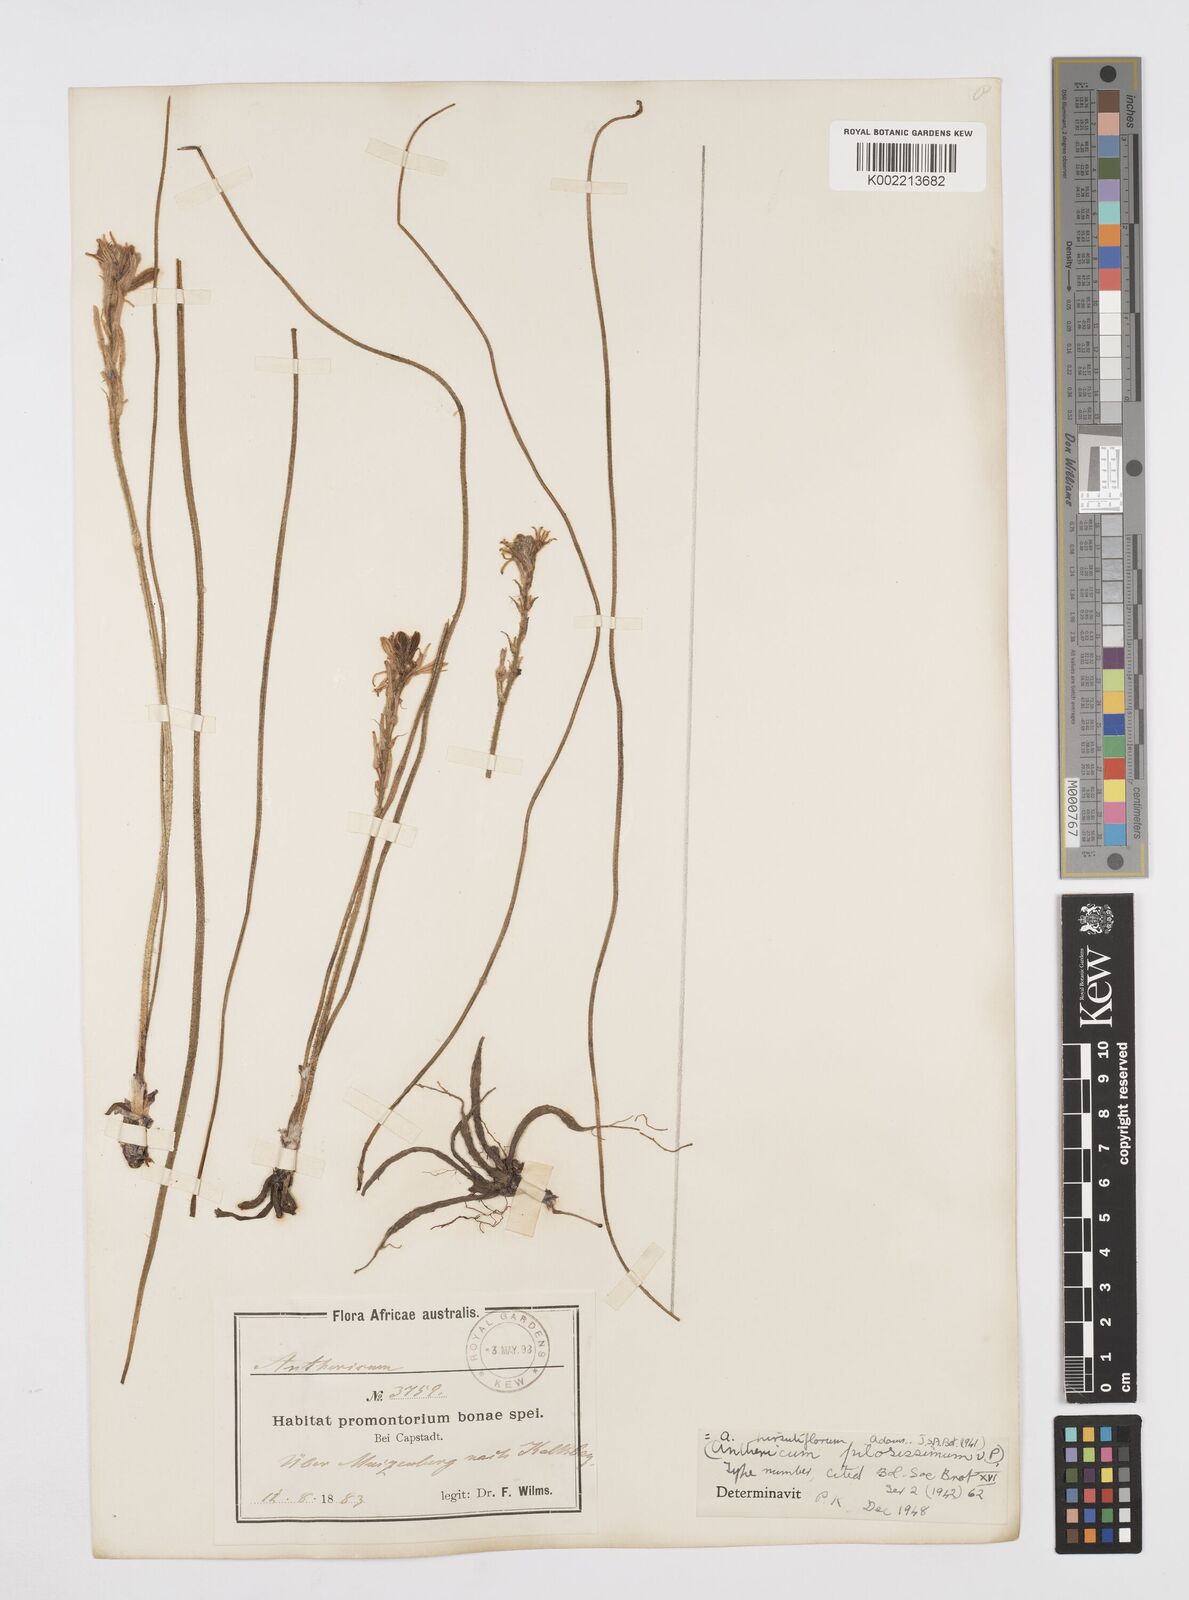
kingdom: Plantae
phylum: Tracheophyta
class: Liliopsida
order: Asparagales
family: Asphodelaceae
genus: Trachyandra
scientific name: Trachyandra hirsutiflora
